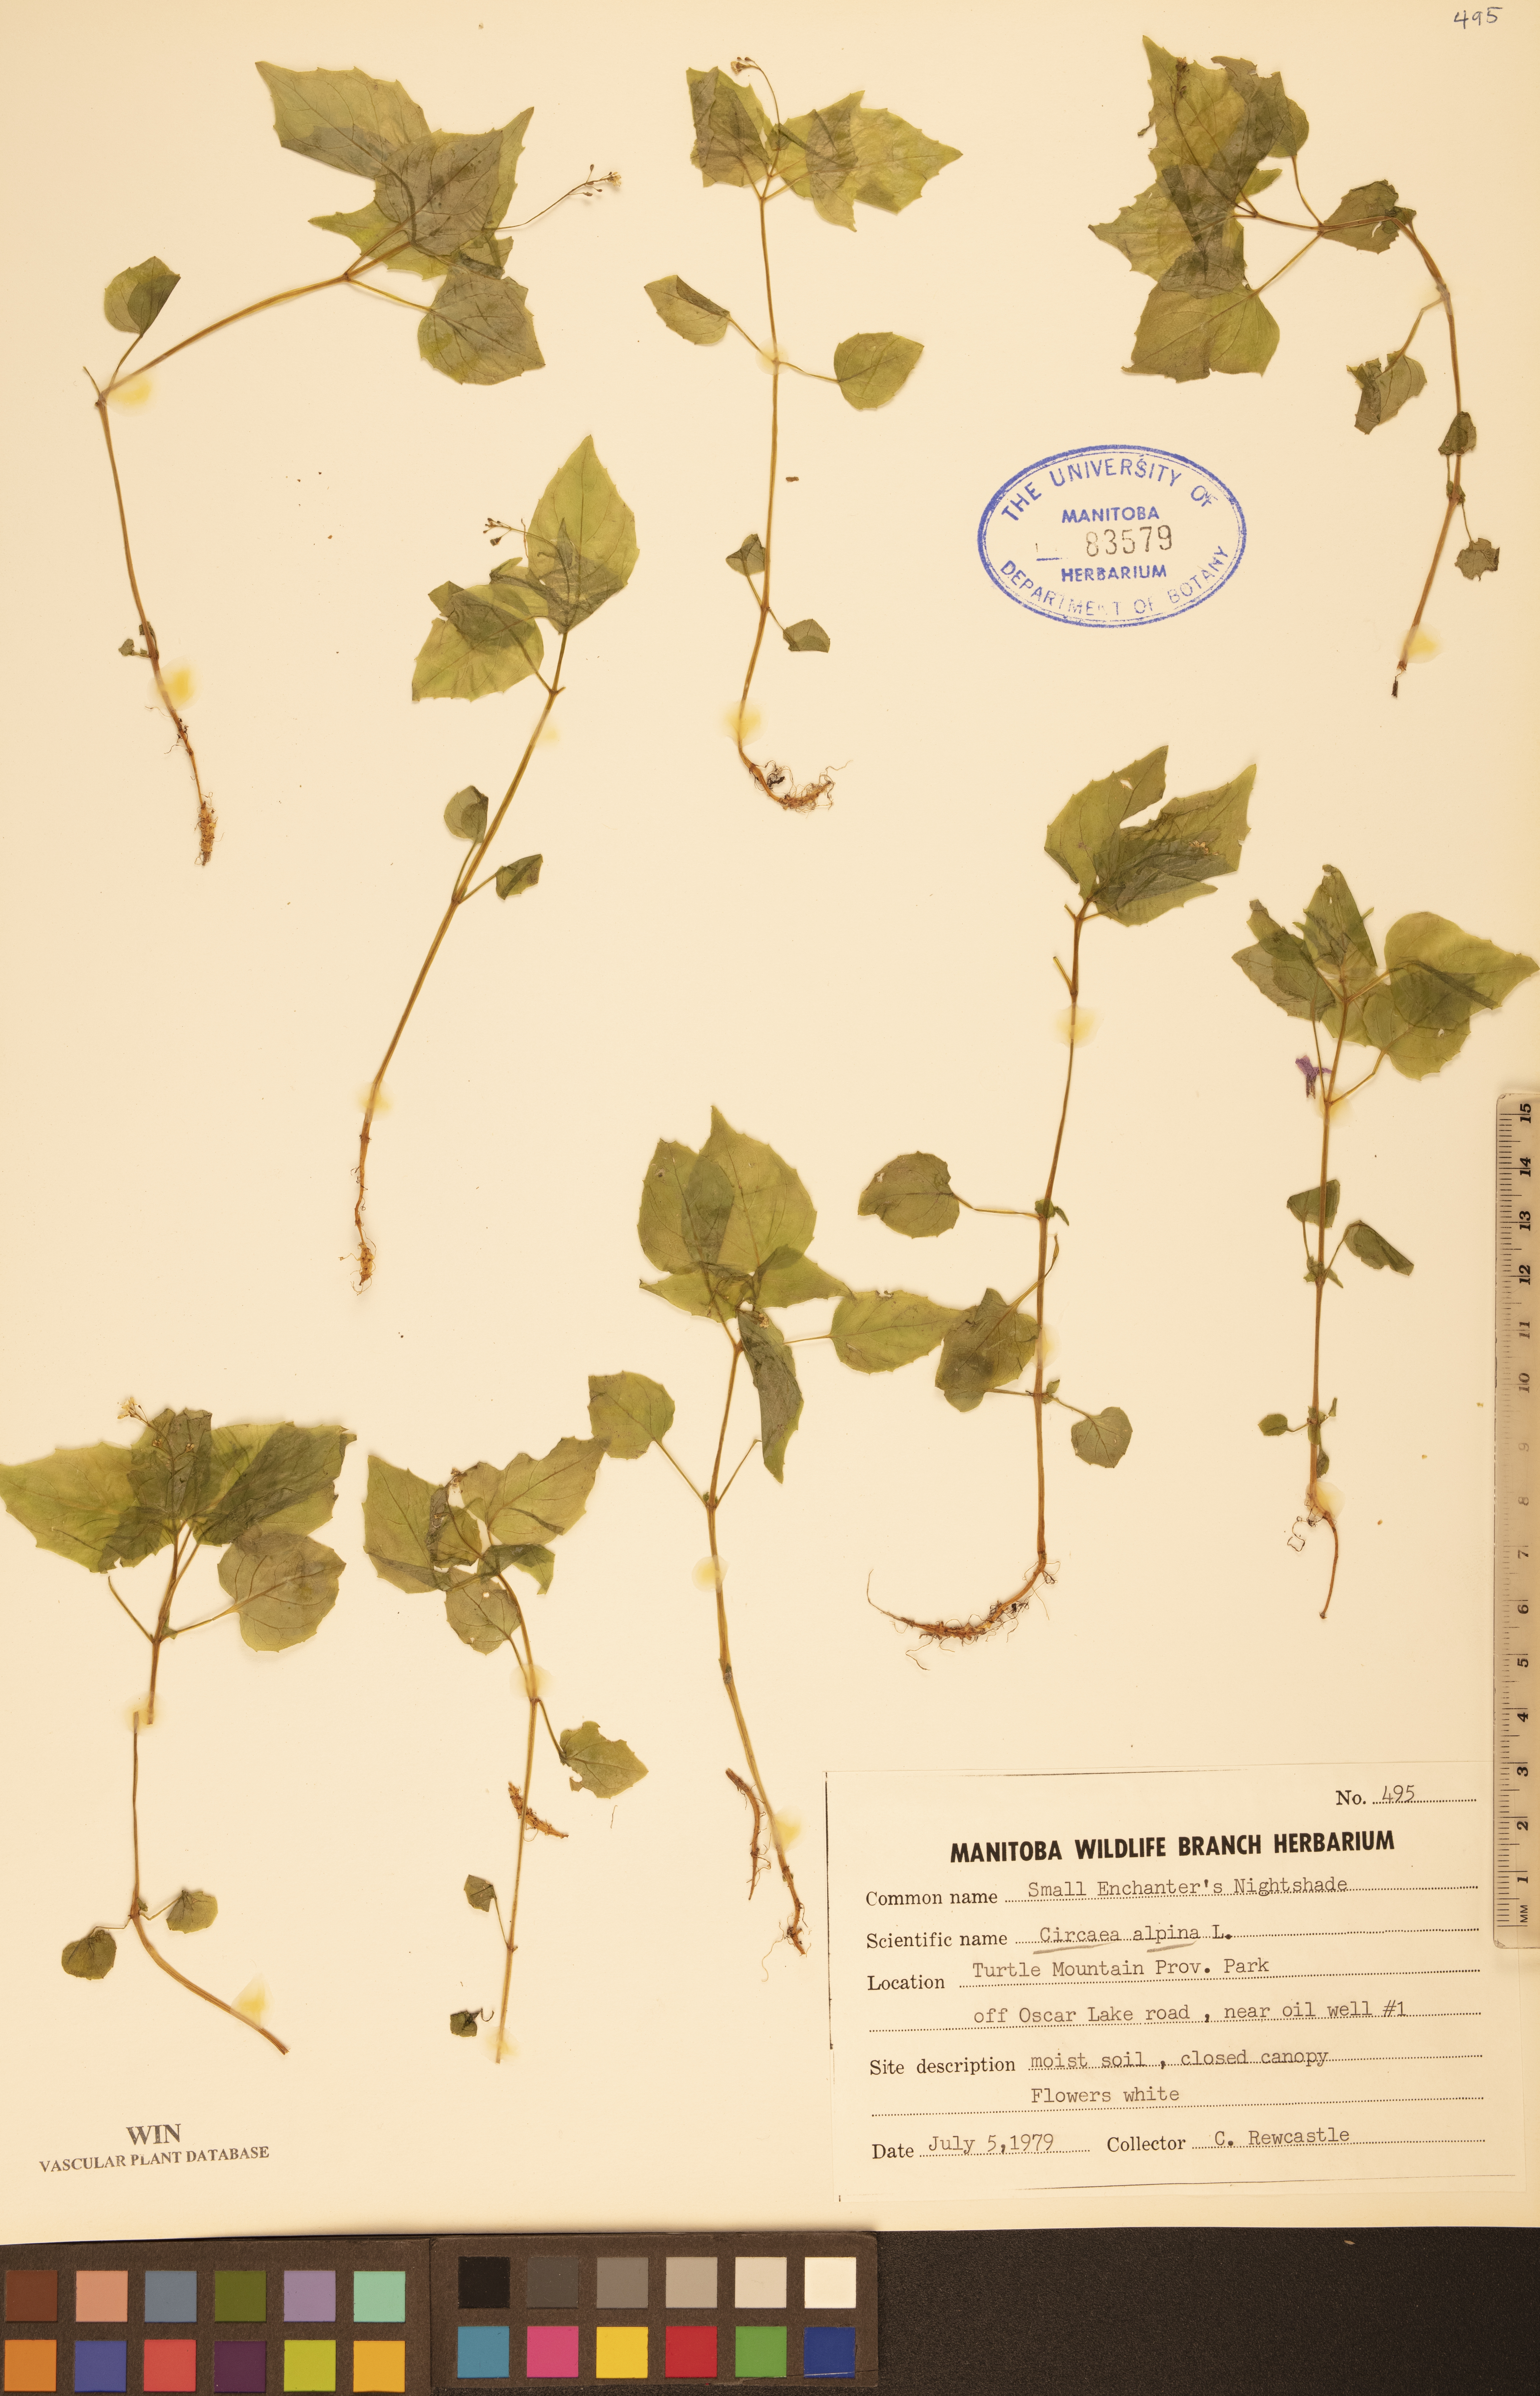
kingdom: Plantae
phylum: Tracheophyta
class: Magnoliopsida
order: Myrtales
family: Onagraceae
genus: Circaea
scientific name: Circaea alpina
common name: Alpine enchanter's-nightshade
